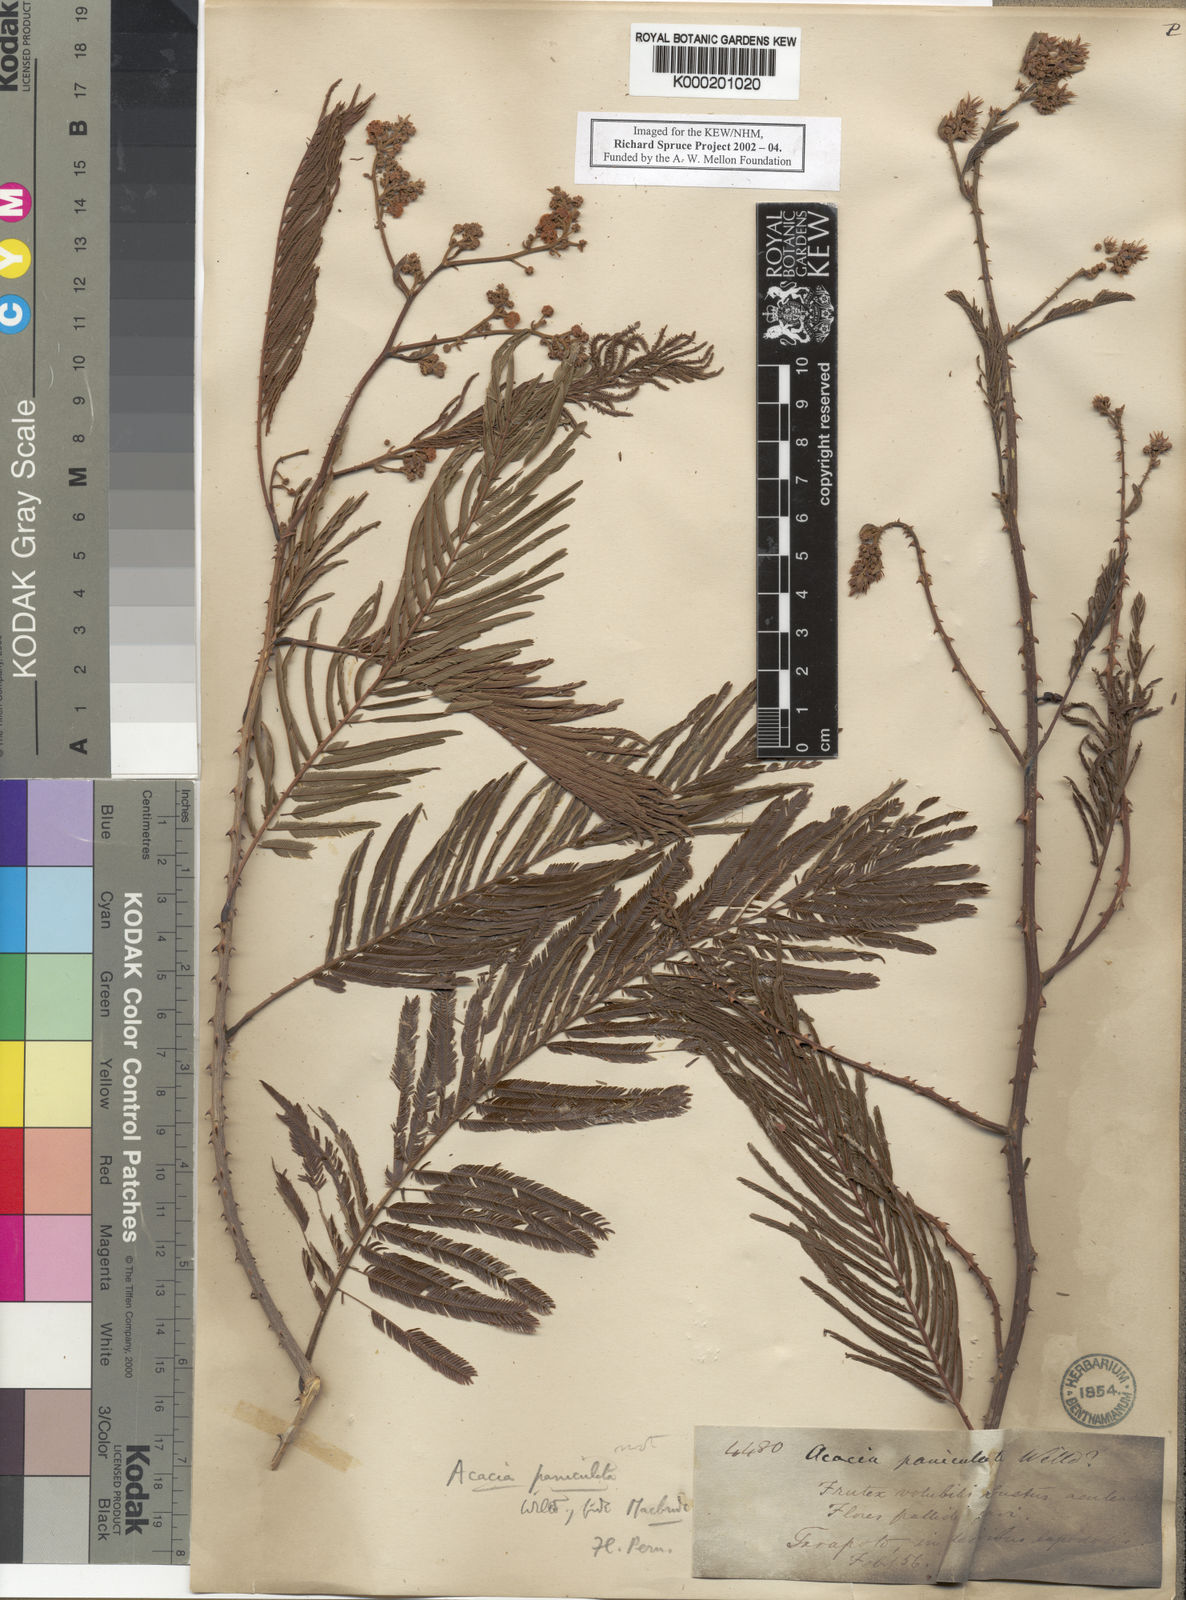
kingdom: Plantae
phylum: Tracheophyta
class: Magnoliopsida
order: Fabales
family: Fabaceae
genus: Senegalia
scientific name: Senegalia paniculata
